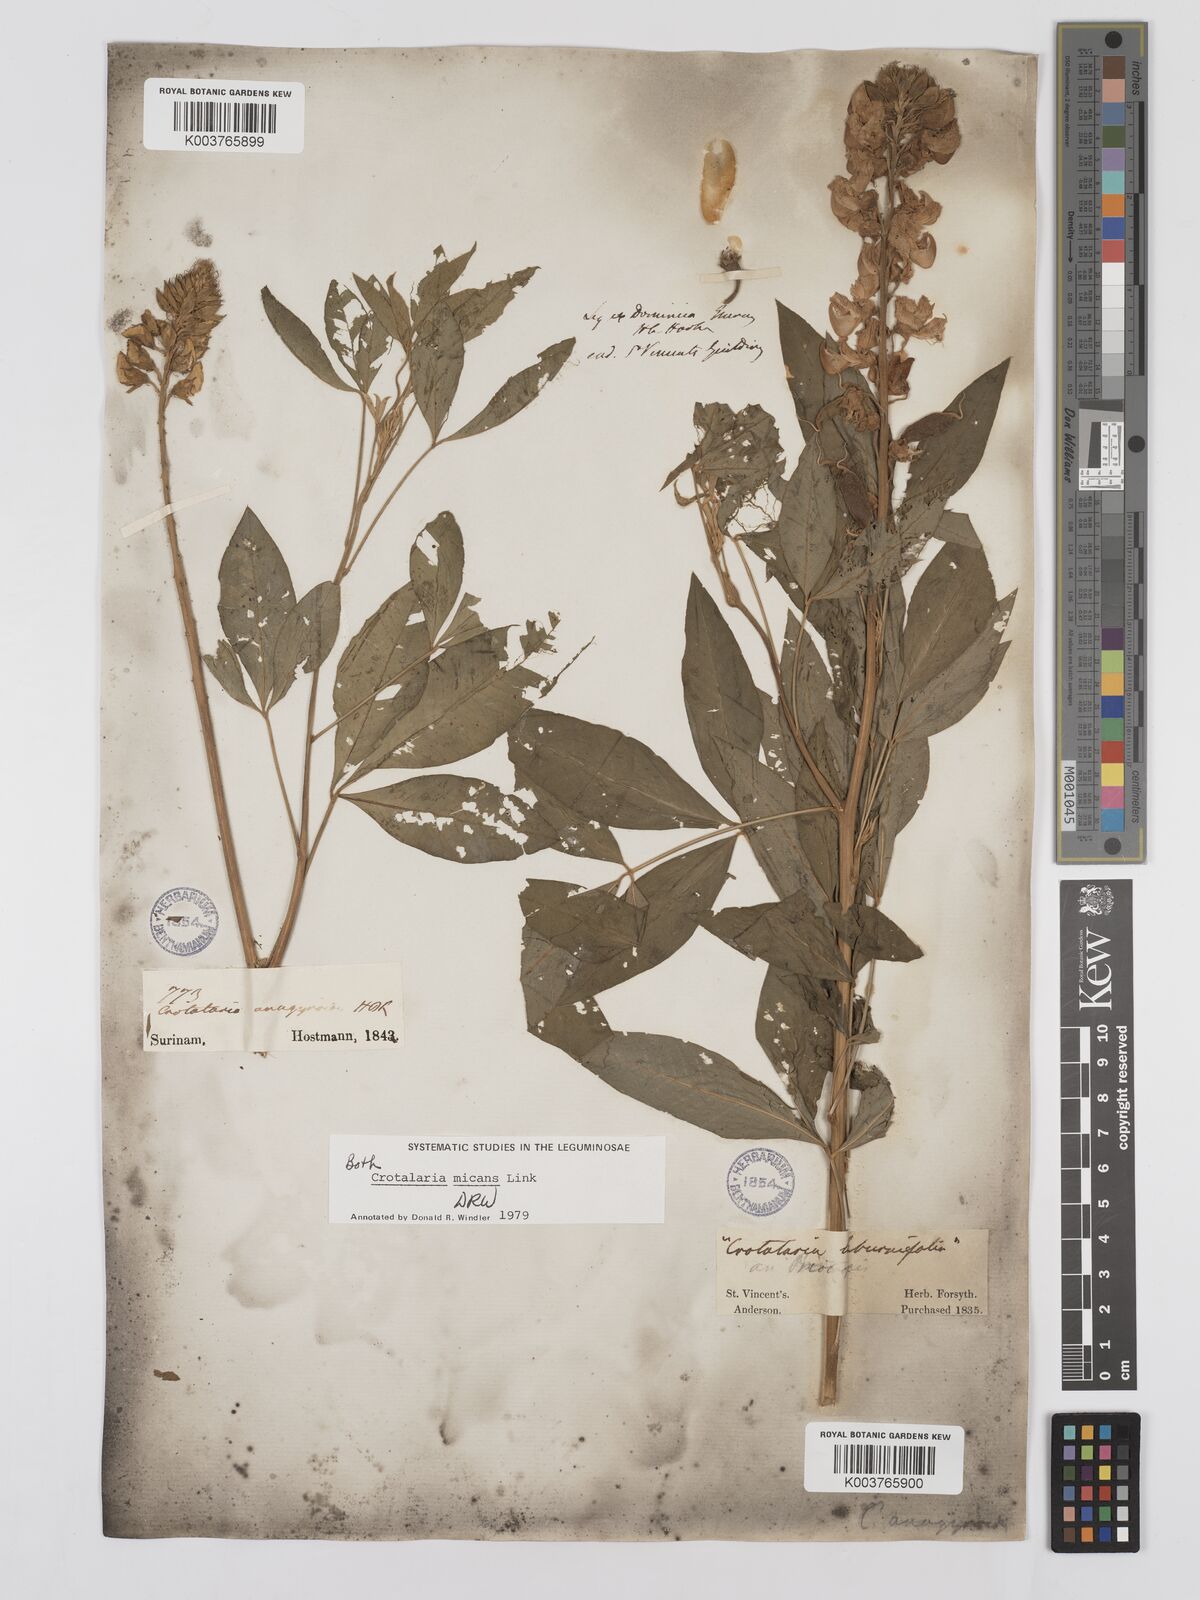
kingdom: Plantae
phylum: Tracheophyta
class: Magnoliopsida
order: Fabales
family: Fabaceae
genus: Crotalaria
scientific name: Crotalaria micans
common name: Caracas rattlebox
